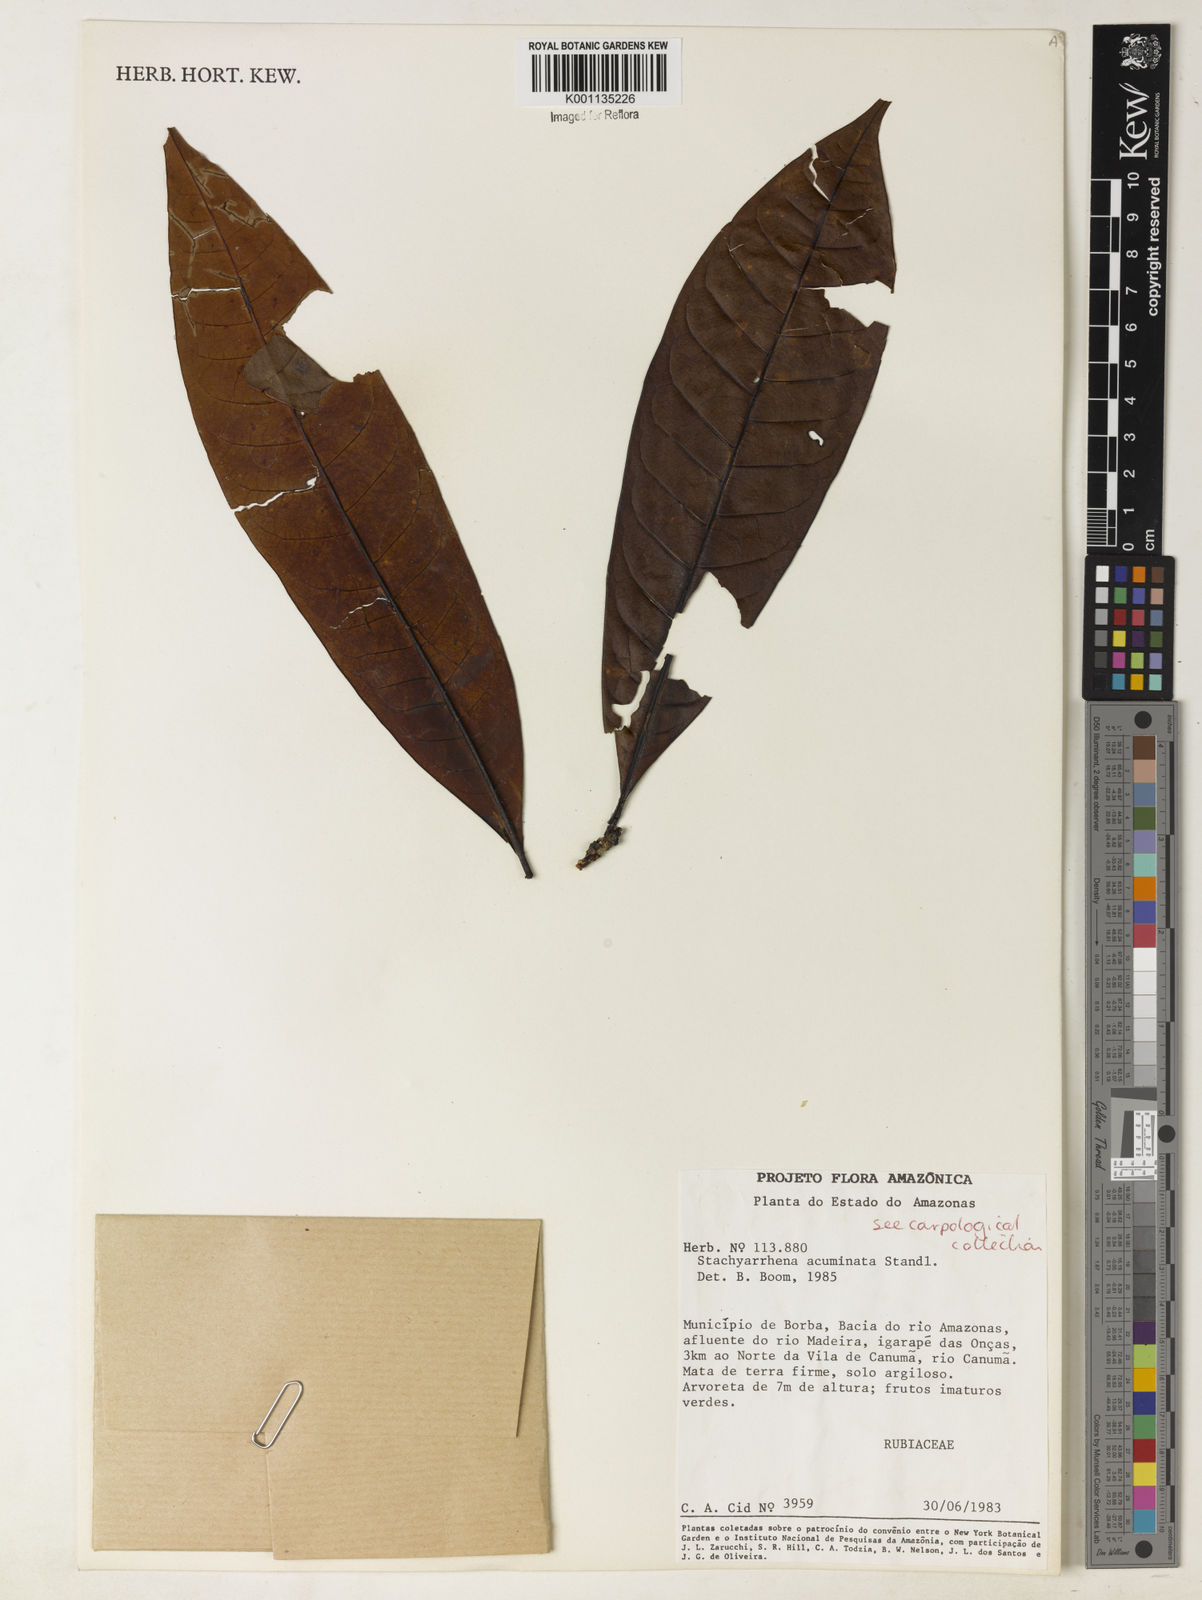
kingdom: Plantae
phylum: Tracheophyta
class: Magnoliopsida
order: Gentianales
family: Rubiaceae
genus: Stachyarrhena
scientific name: Stachyarrhena acuminata
